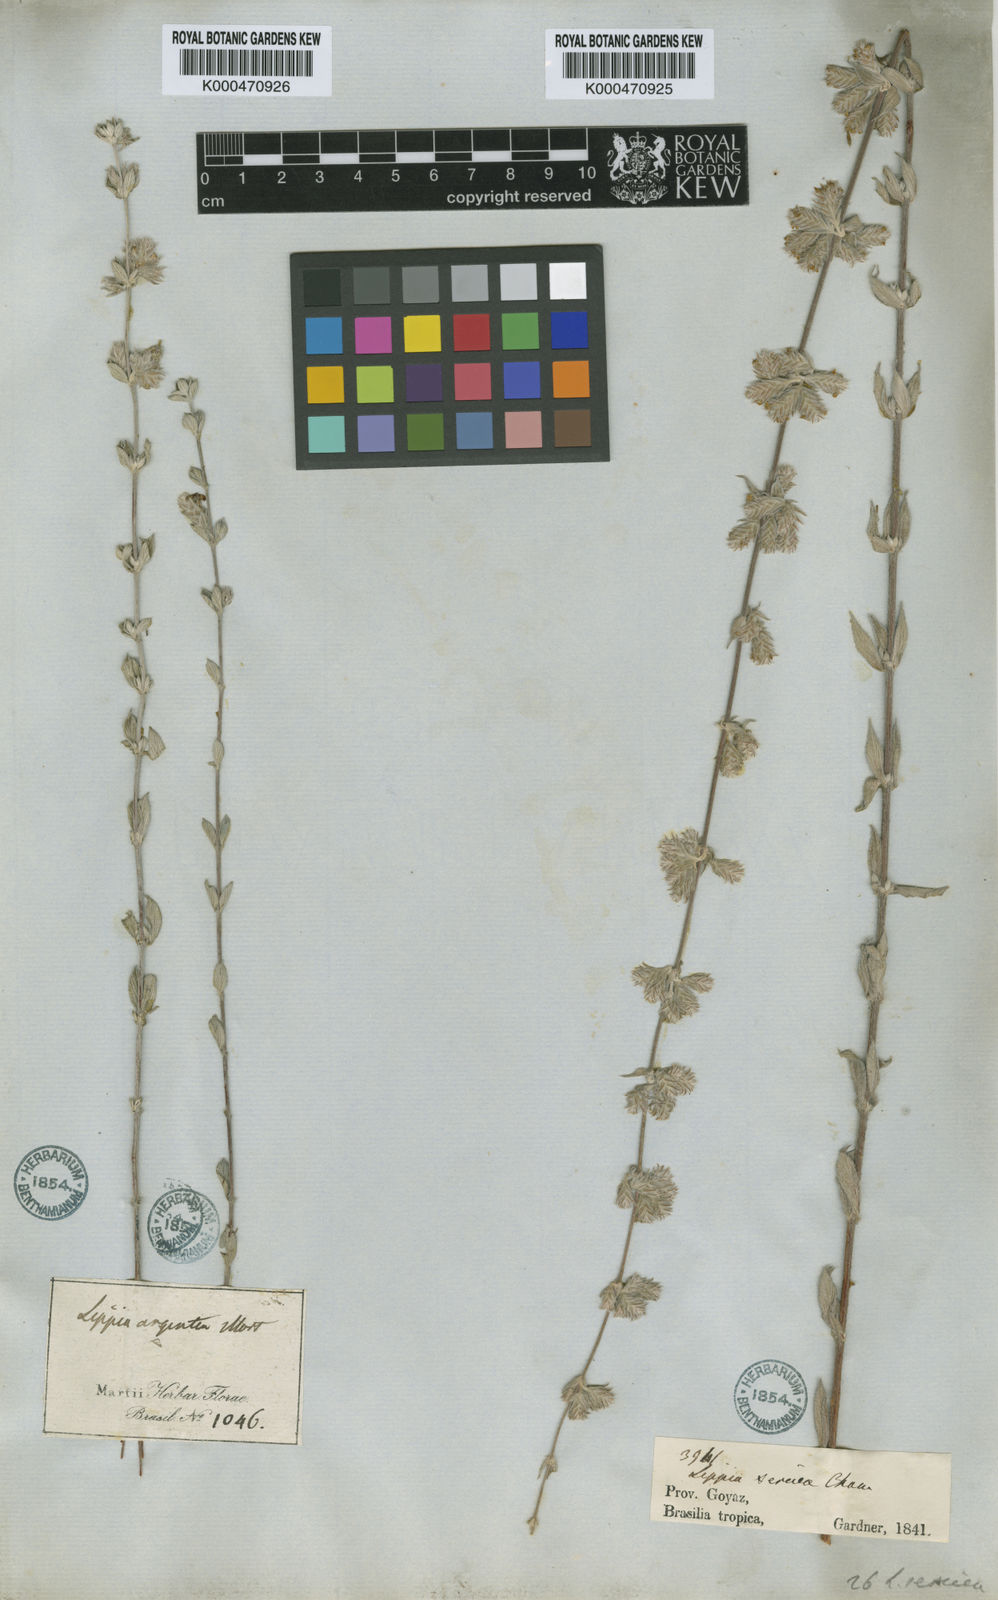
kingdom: Plantae
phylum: Tracheophyta
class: Magnoliopsida
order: Lamiales
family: Verbenaceae
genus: Lippia
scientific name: Lippia sericea
